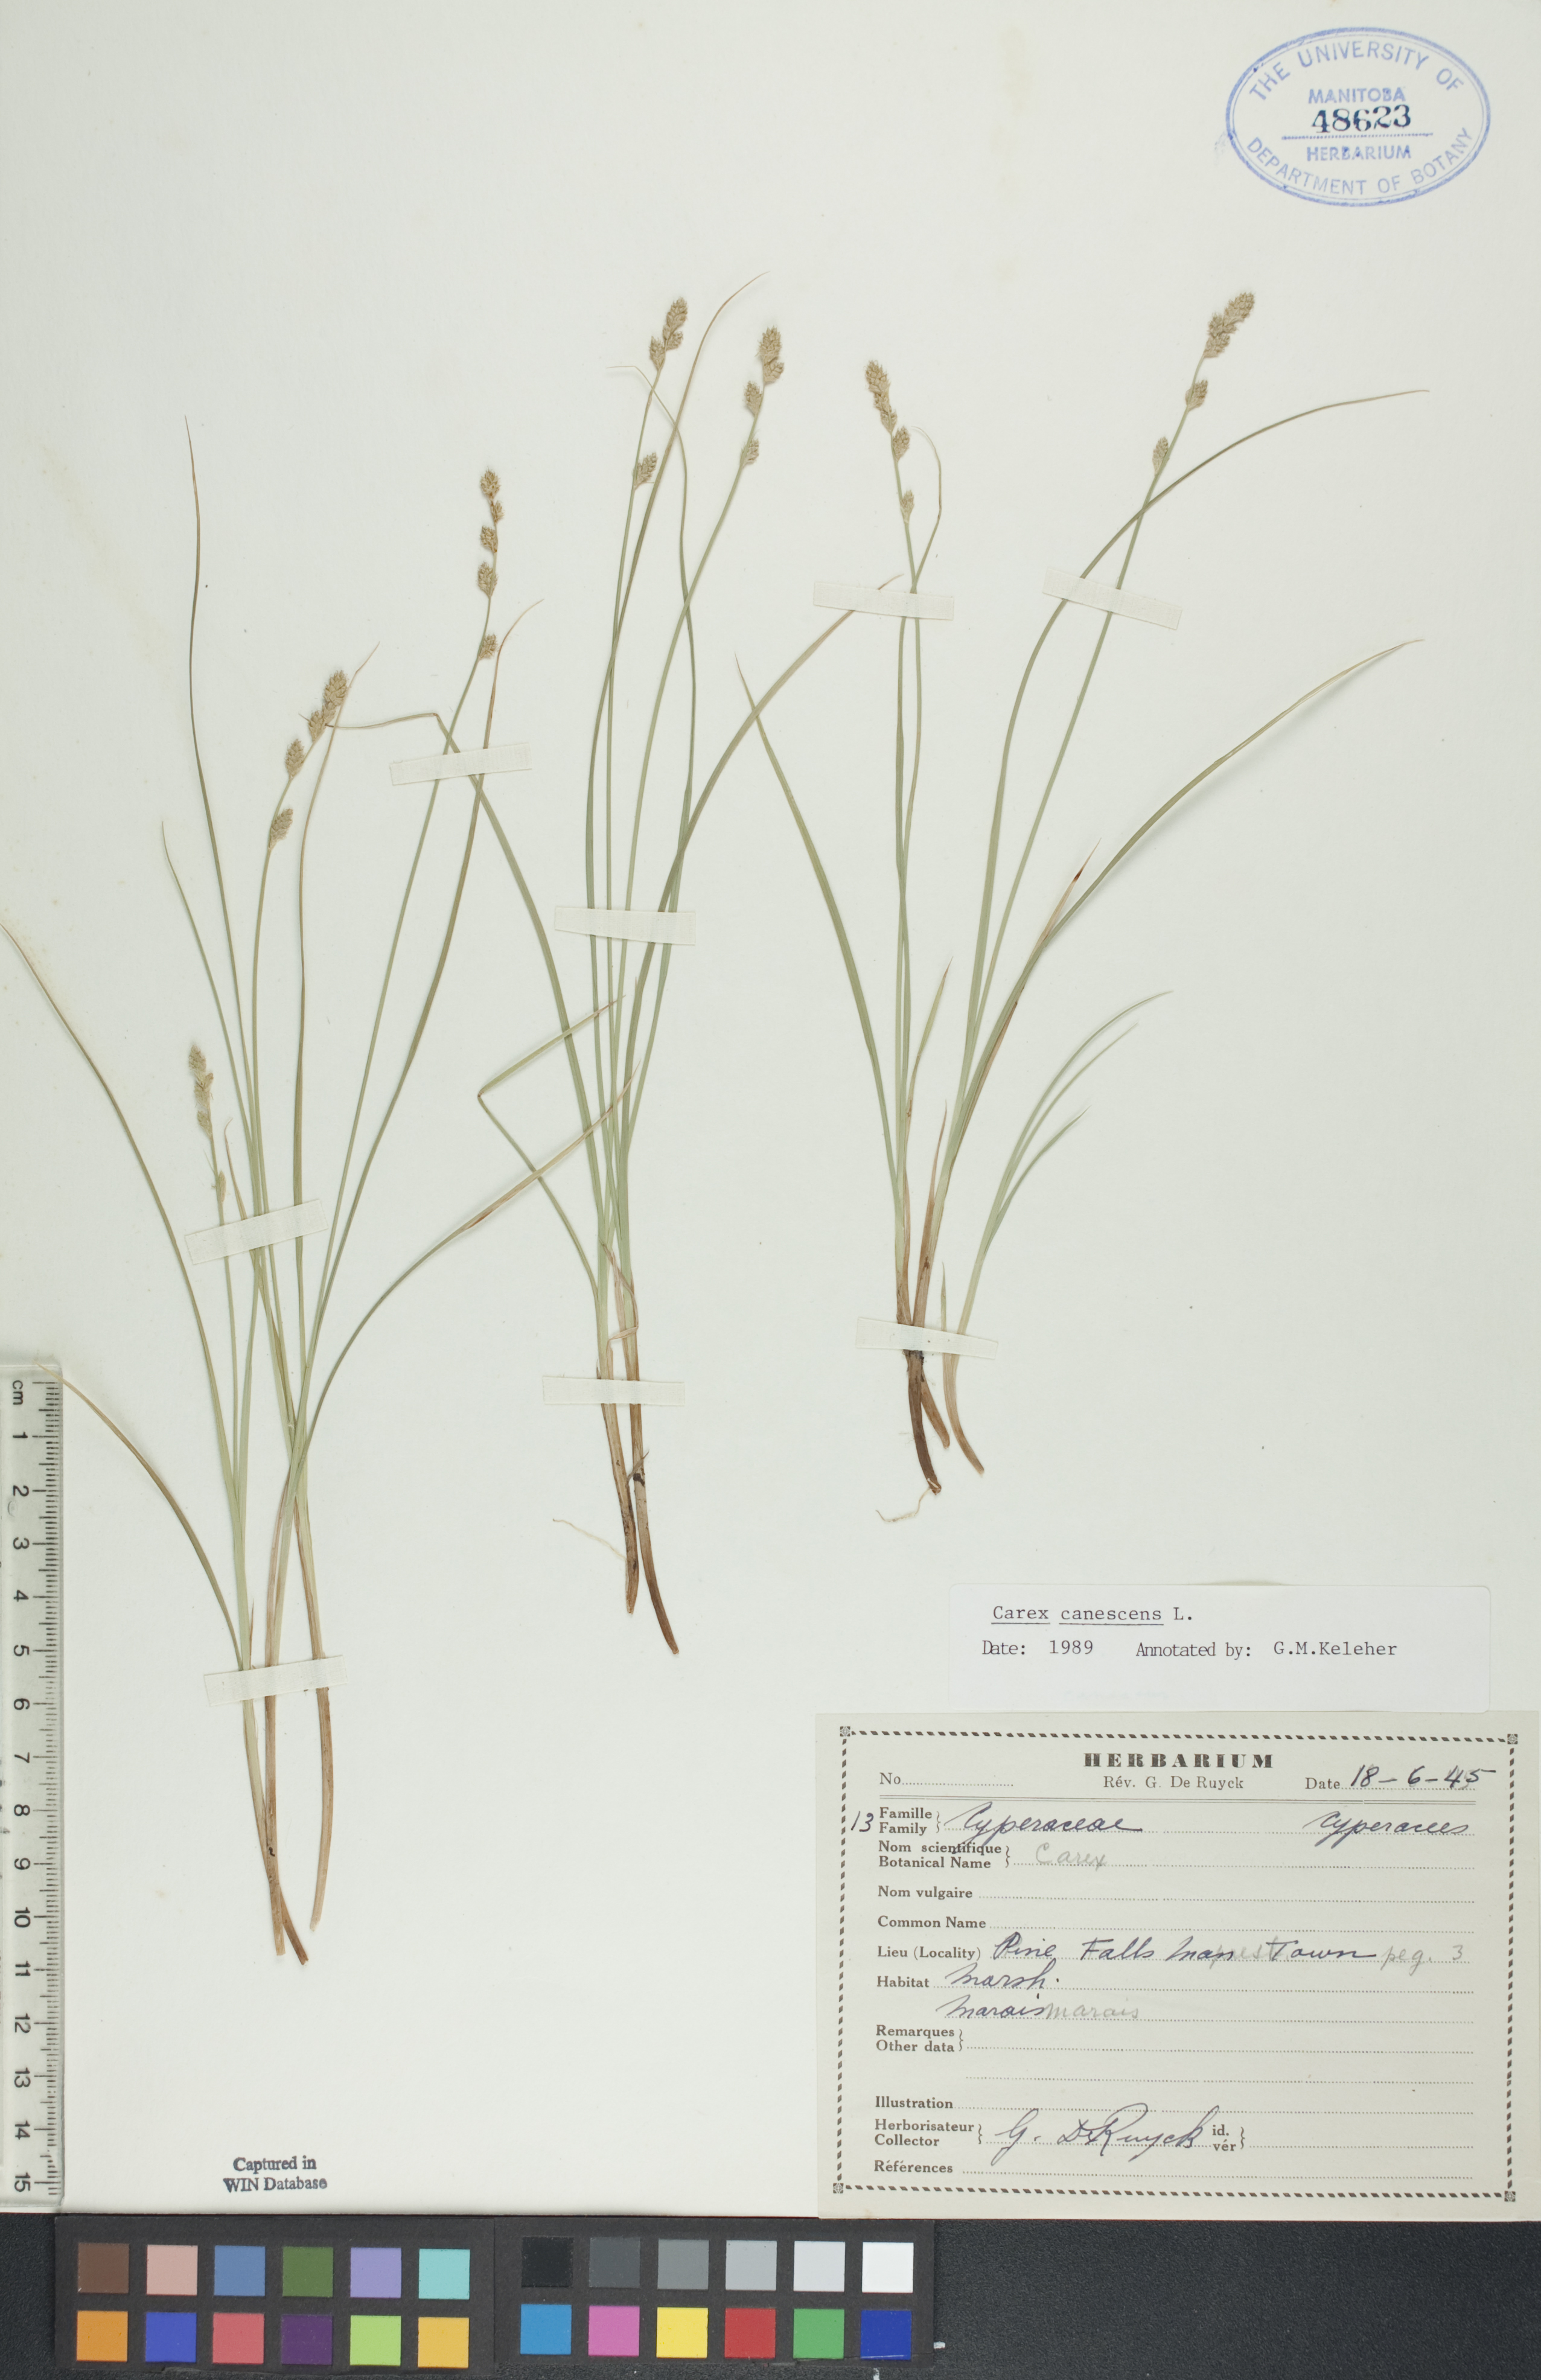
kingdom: Plantae
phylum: Tracheophyta
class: Liliopsida
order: Poales
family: Cyperaceae
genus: Carex
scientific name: Carex canescens
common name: White sedge
